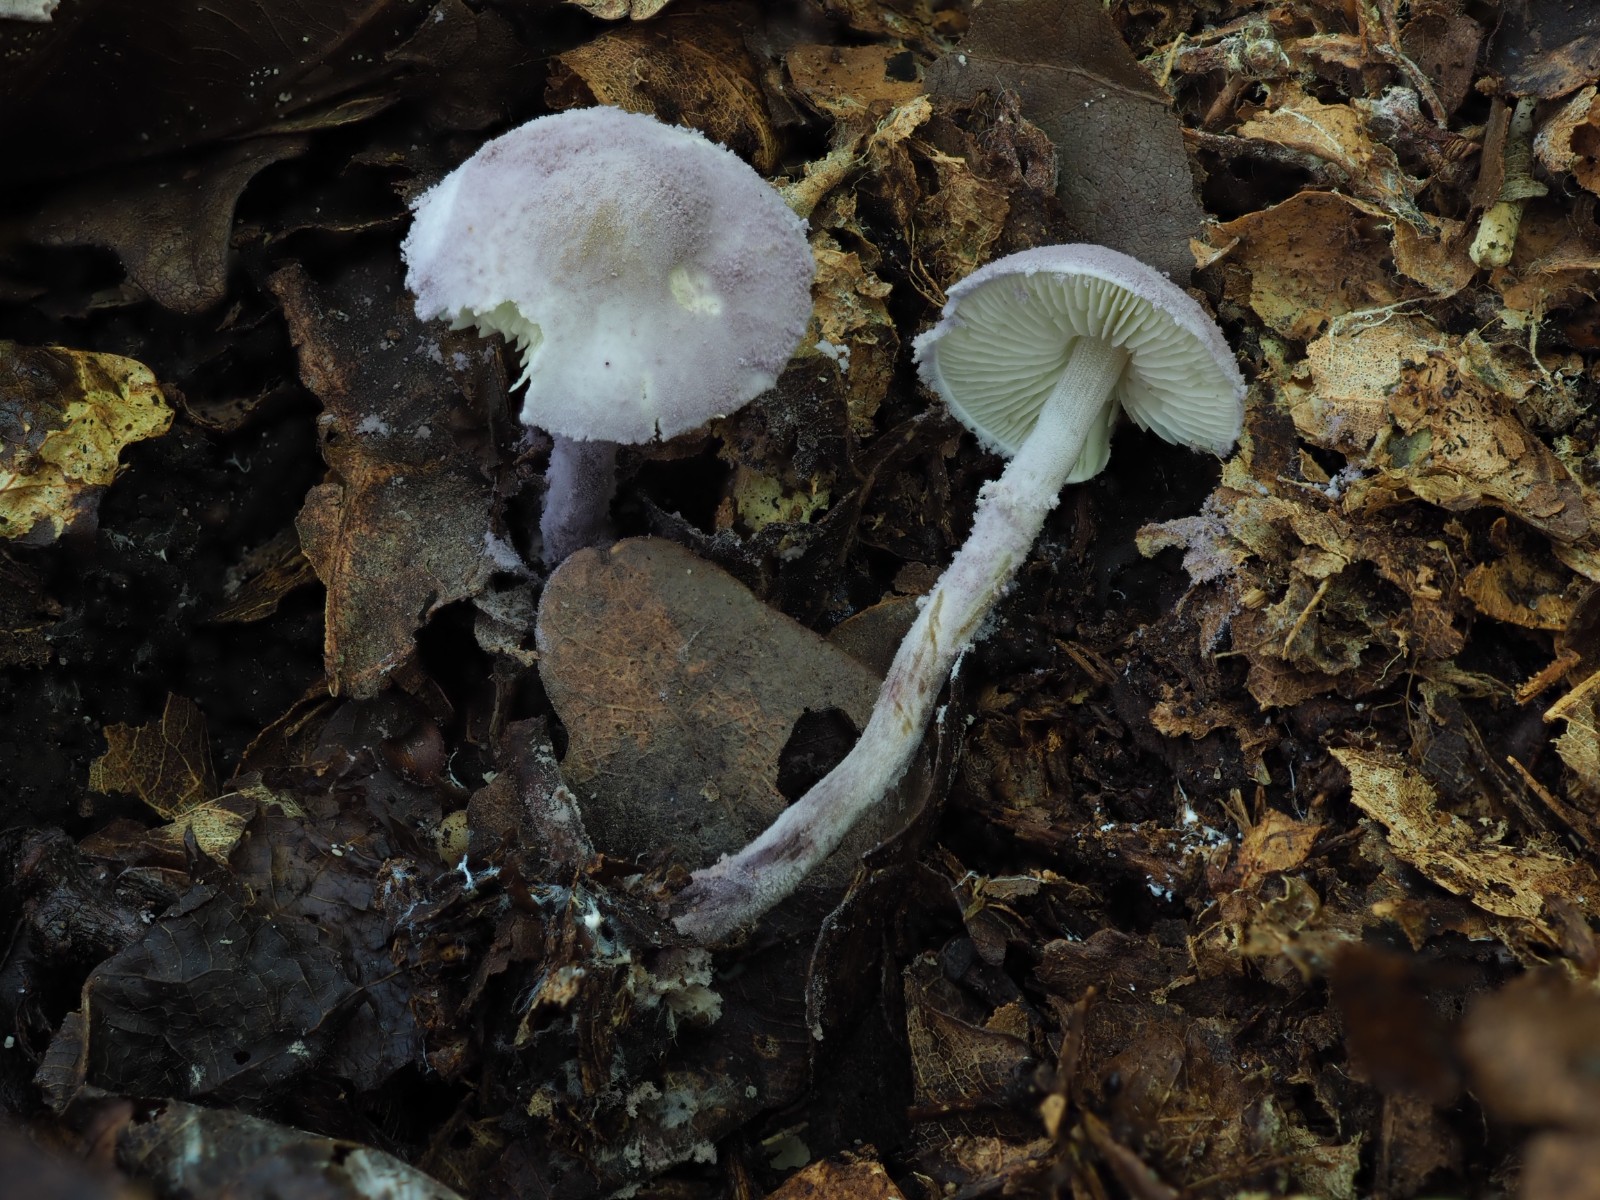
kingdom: Fungi
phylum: Basidiomycota
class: Agaricomycetes
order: Agaricales
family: Agaricaceae
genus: Cystolepiota
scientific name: Cystolepiota bucknallii
